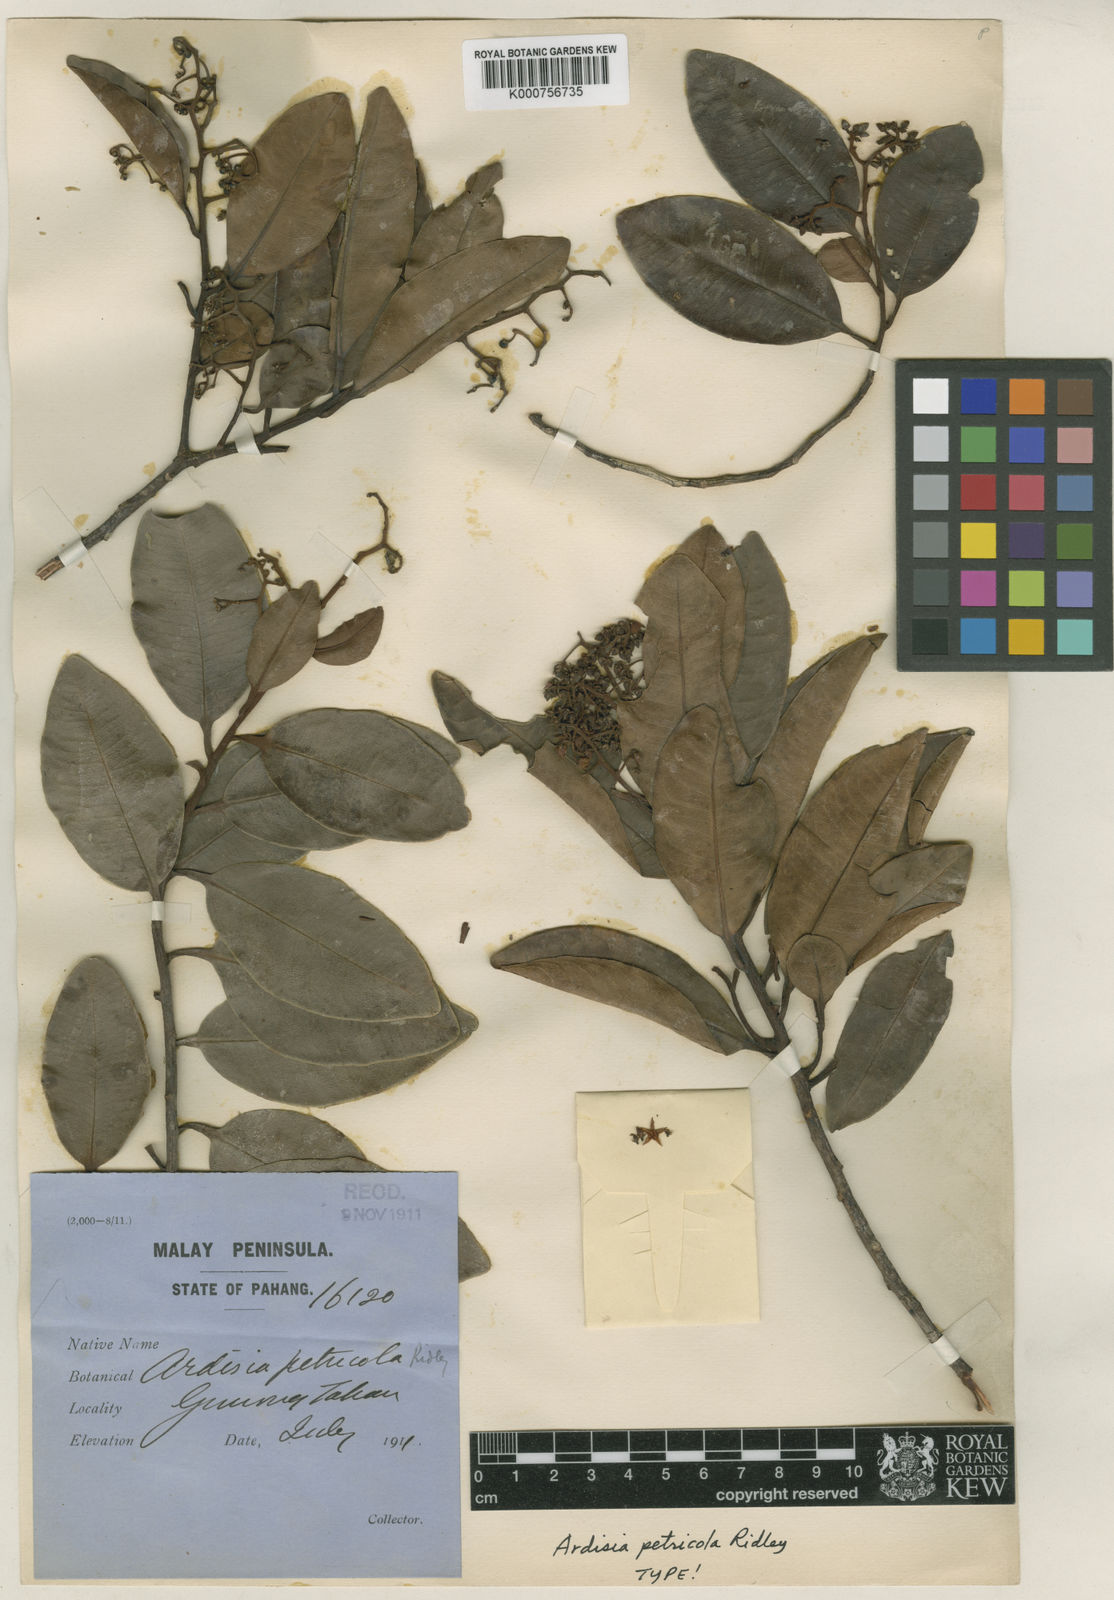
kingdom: Plantae
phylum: Tracheophyta
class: Magnoliopsida
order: Ericales
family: Primulaceae
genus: Ardisia
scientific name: Ardisia ophirensis
